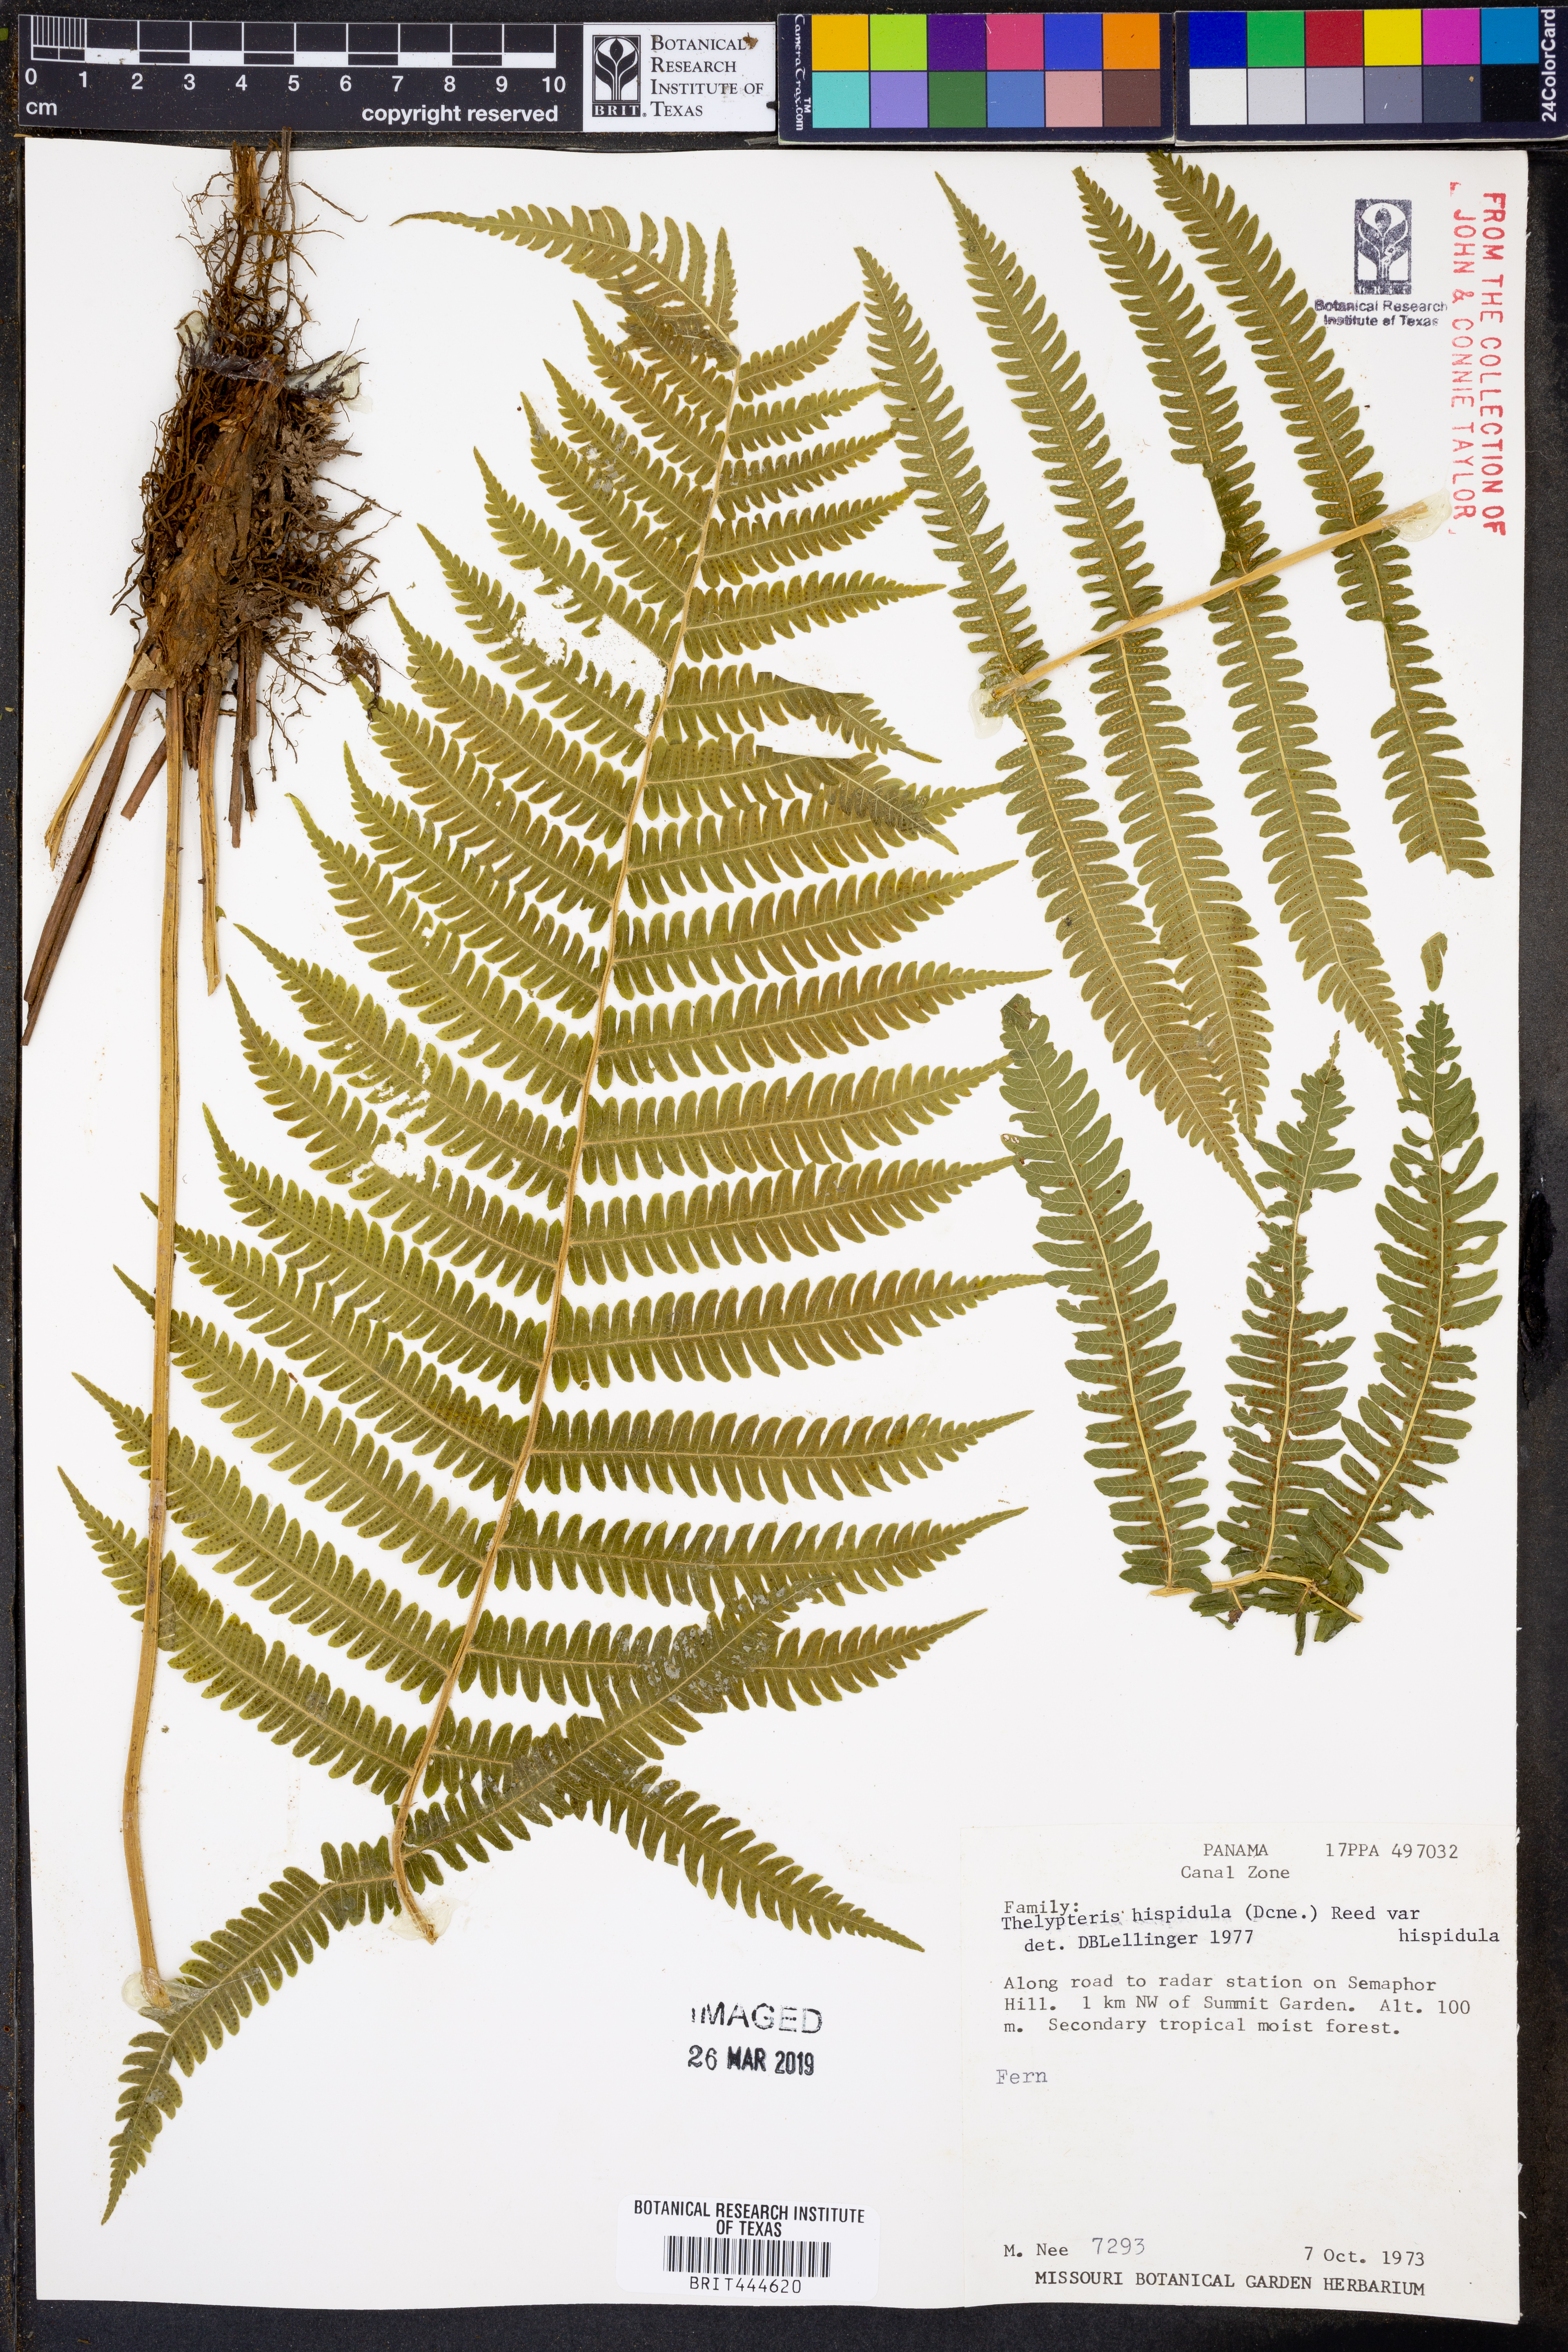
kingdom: Plantae
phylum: Tracheophyta
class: Polypodiopsida
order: Polypodiales
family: Thelypteridaceae
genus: Christella
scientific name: Christella hispidula
